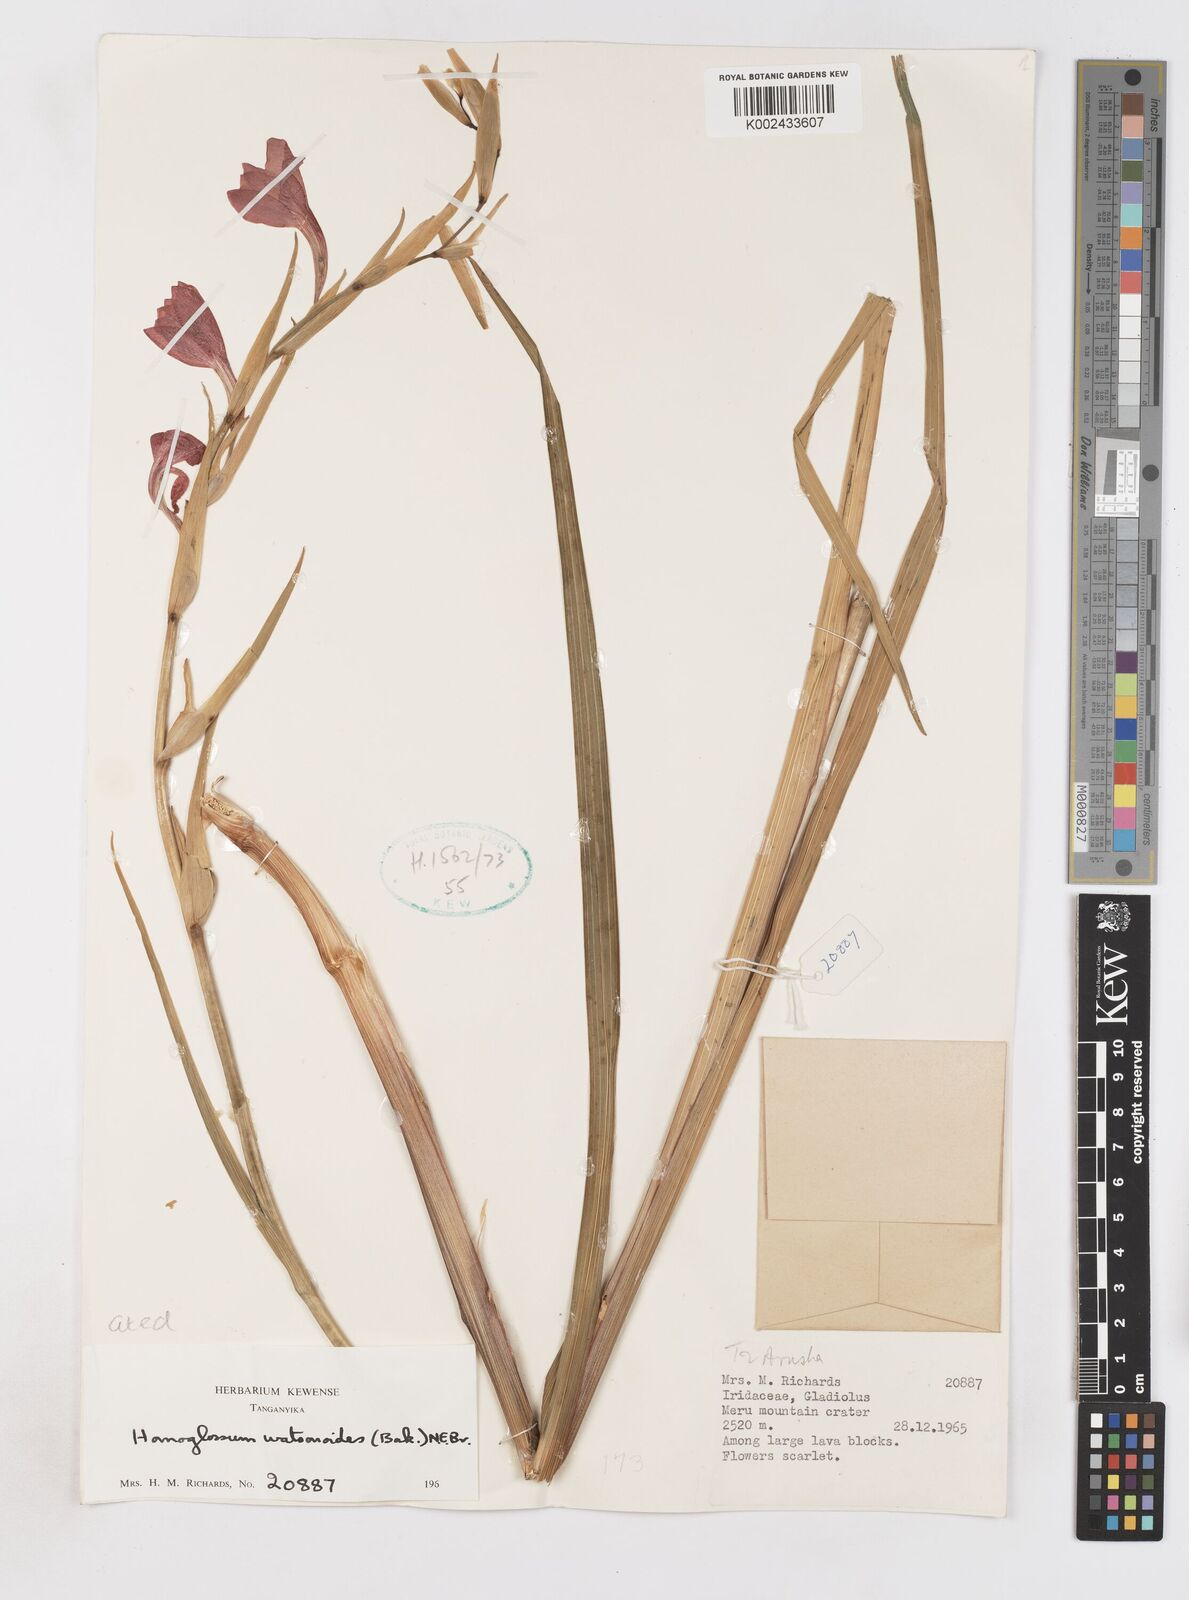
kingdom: Plantae
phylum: Tracheophyta
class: Liliopsida
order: Asparagales
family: Iridaceae
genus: Gladiolus
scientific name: Gladiolus watsonioides
